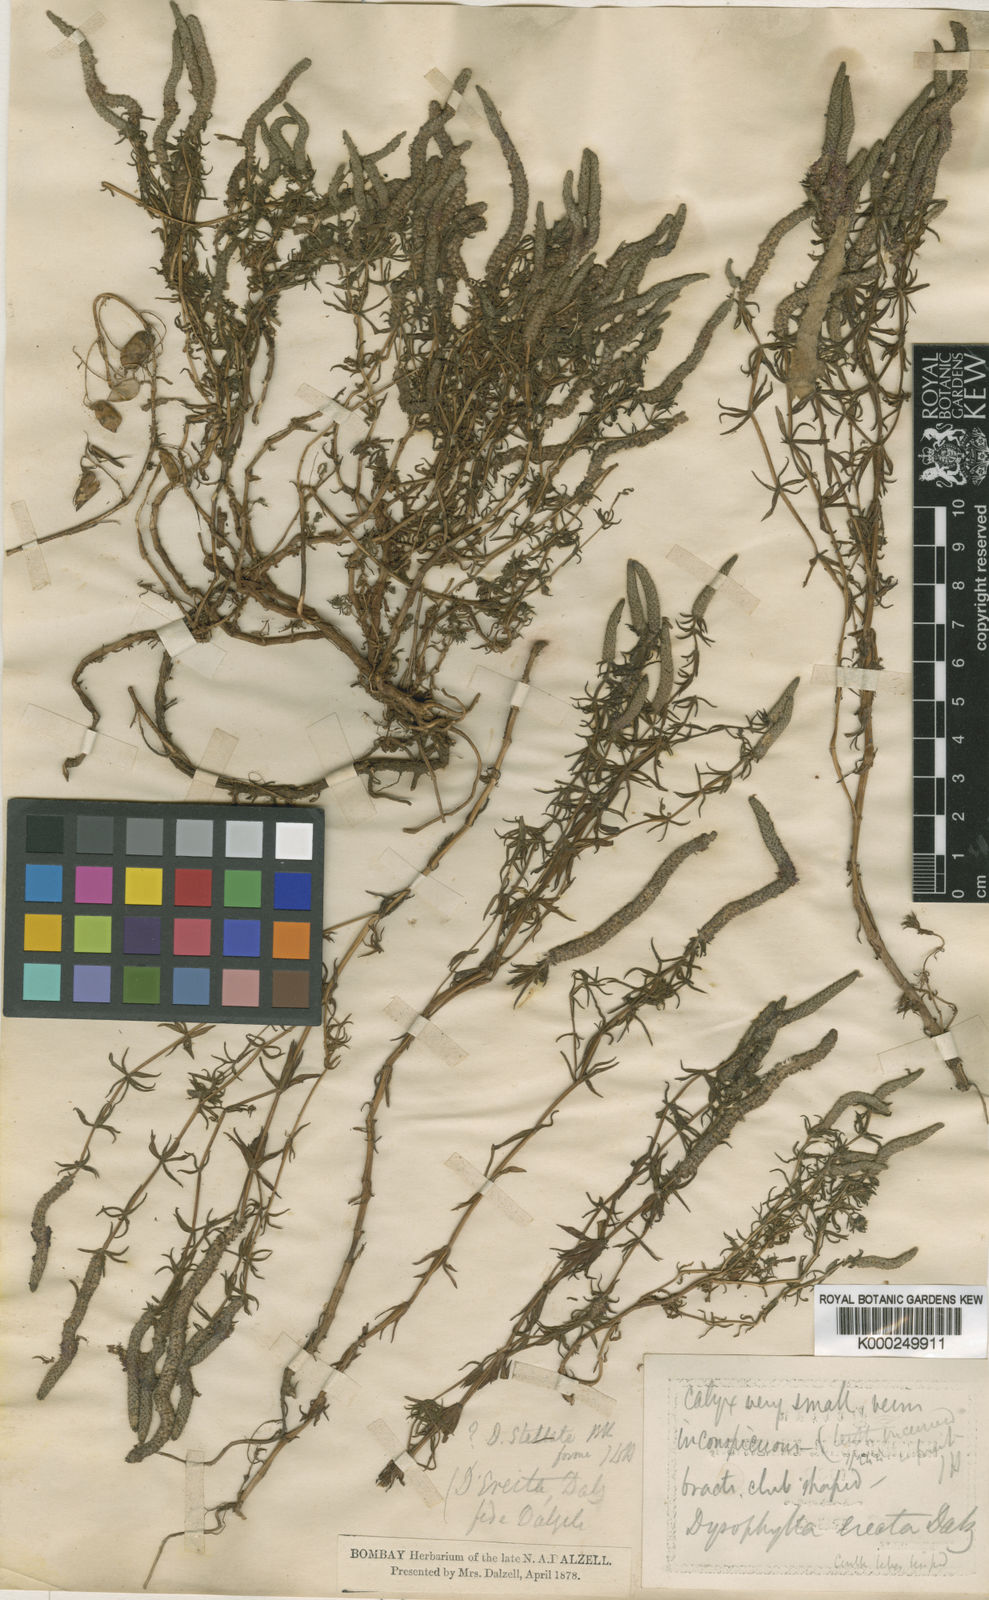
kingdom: Plantae
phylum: Tracheophyta
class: Magnoliopsida
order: Lamiales
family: Lamiaceae
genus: Pogostemon
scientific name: Pogostemon erectus
